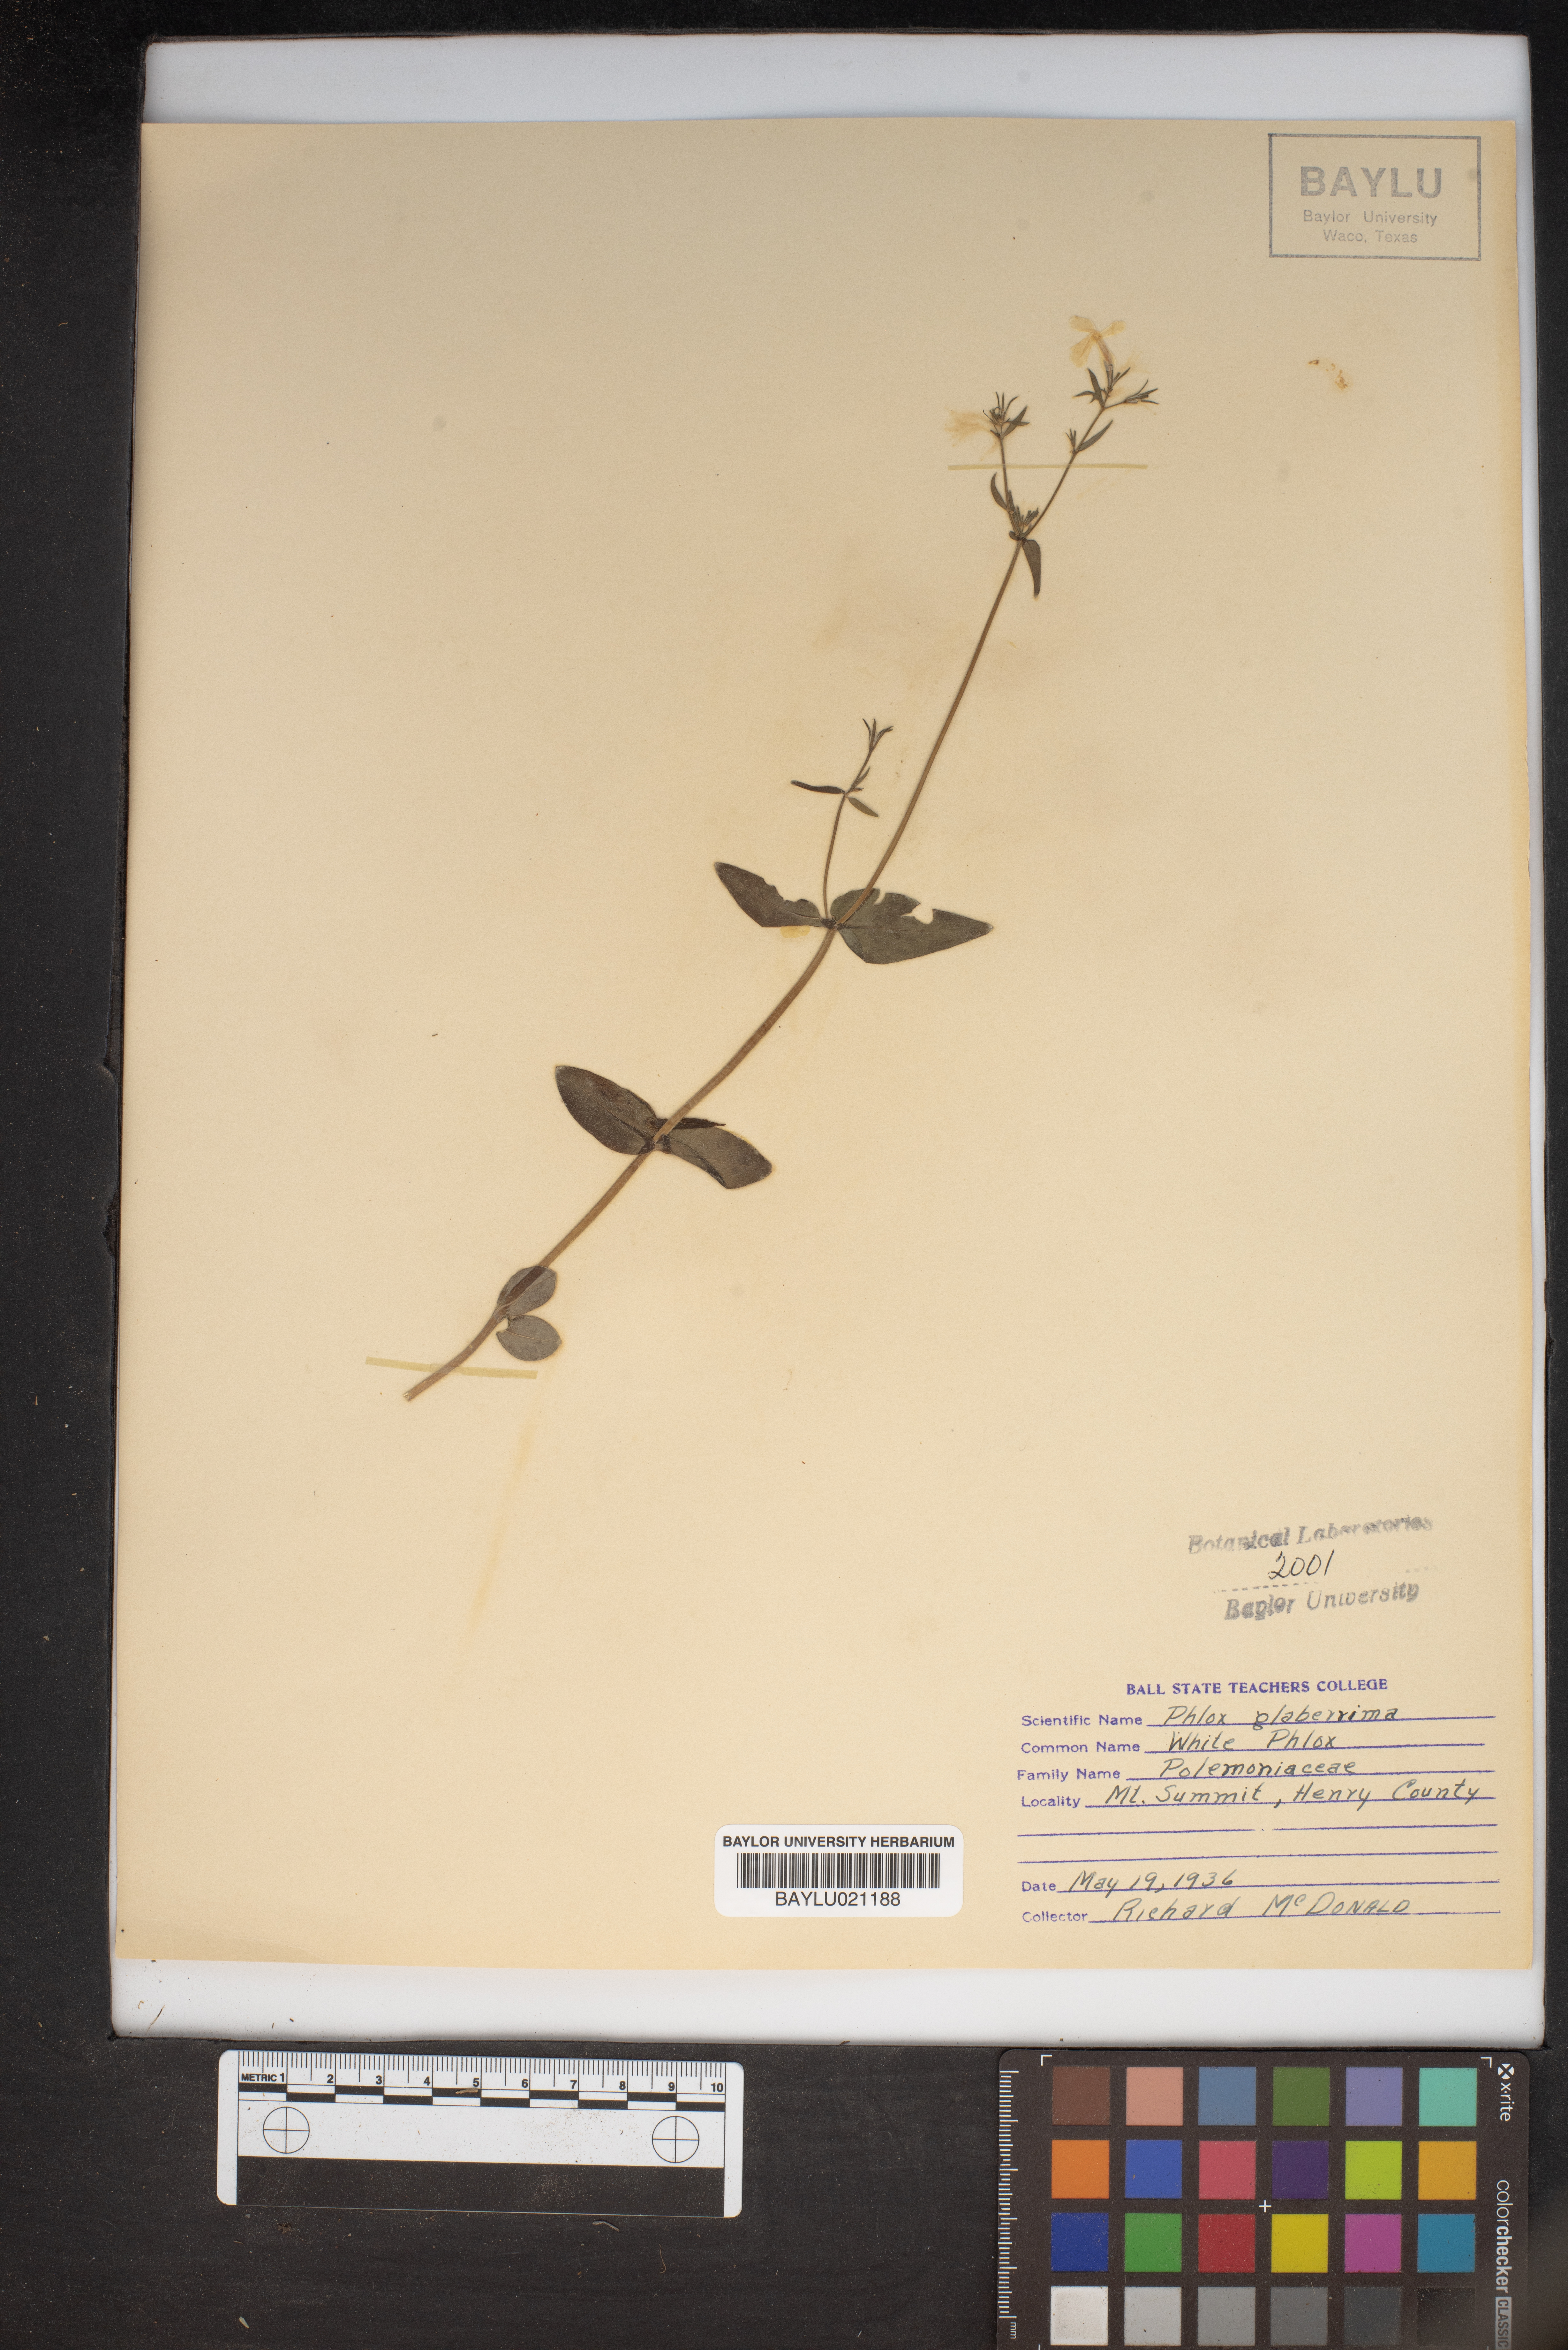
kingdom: Plantae
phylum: Tracheophyta
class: Magnoliopsida
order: Ericales
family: Polemoniaceae
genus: Phlox
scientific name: Phlox glaberrima
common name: Smooth phlox
